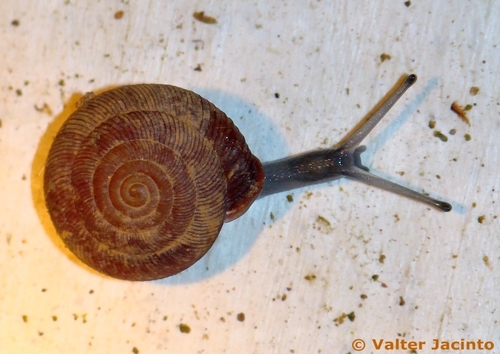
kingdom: Animalia
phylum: Mollusca
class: Gastropoda
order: Stylommatophora
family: Trissexodontidae
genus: Oestophora
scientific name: Oestophora barbella
